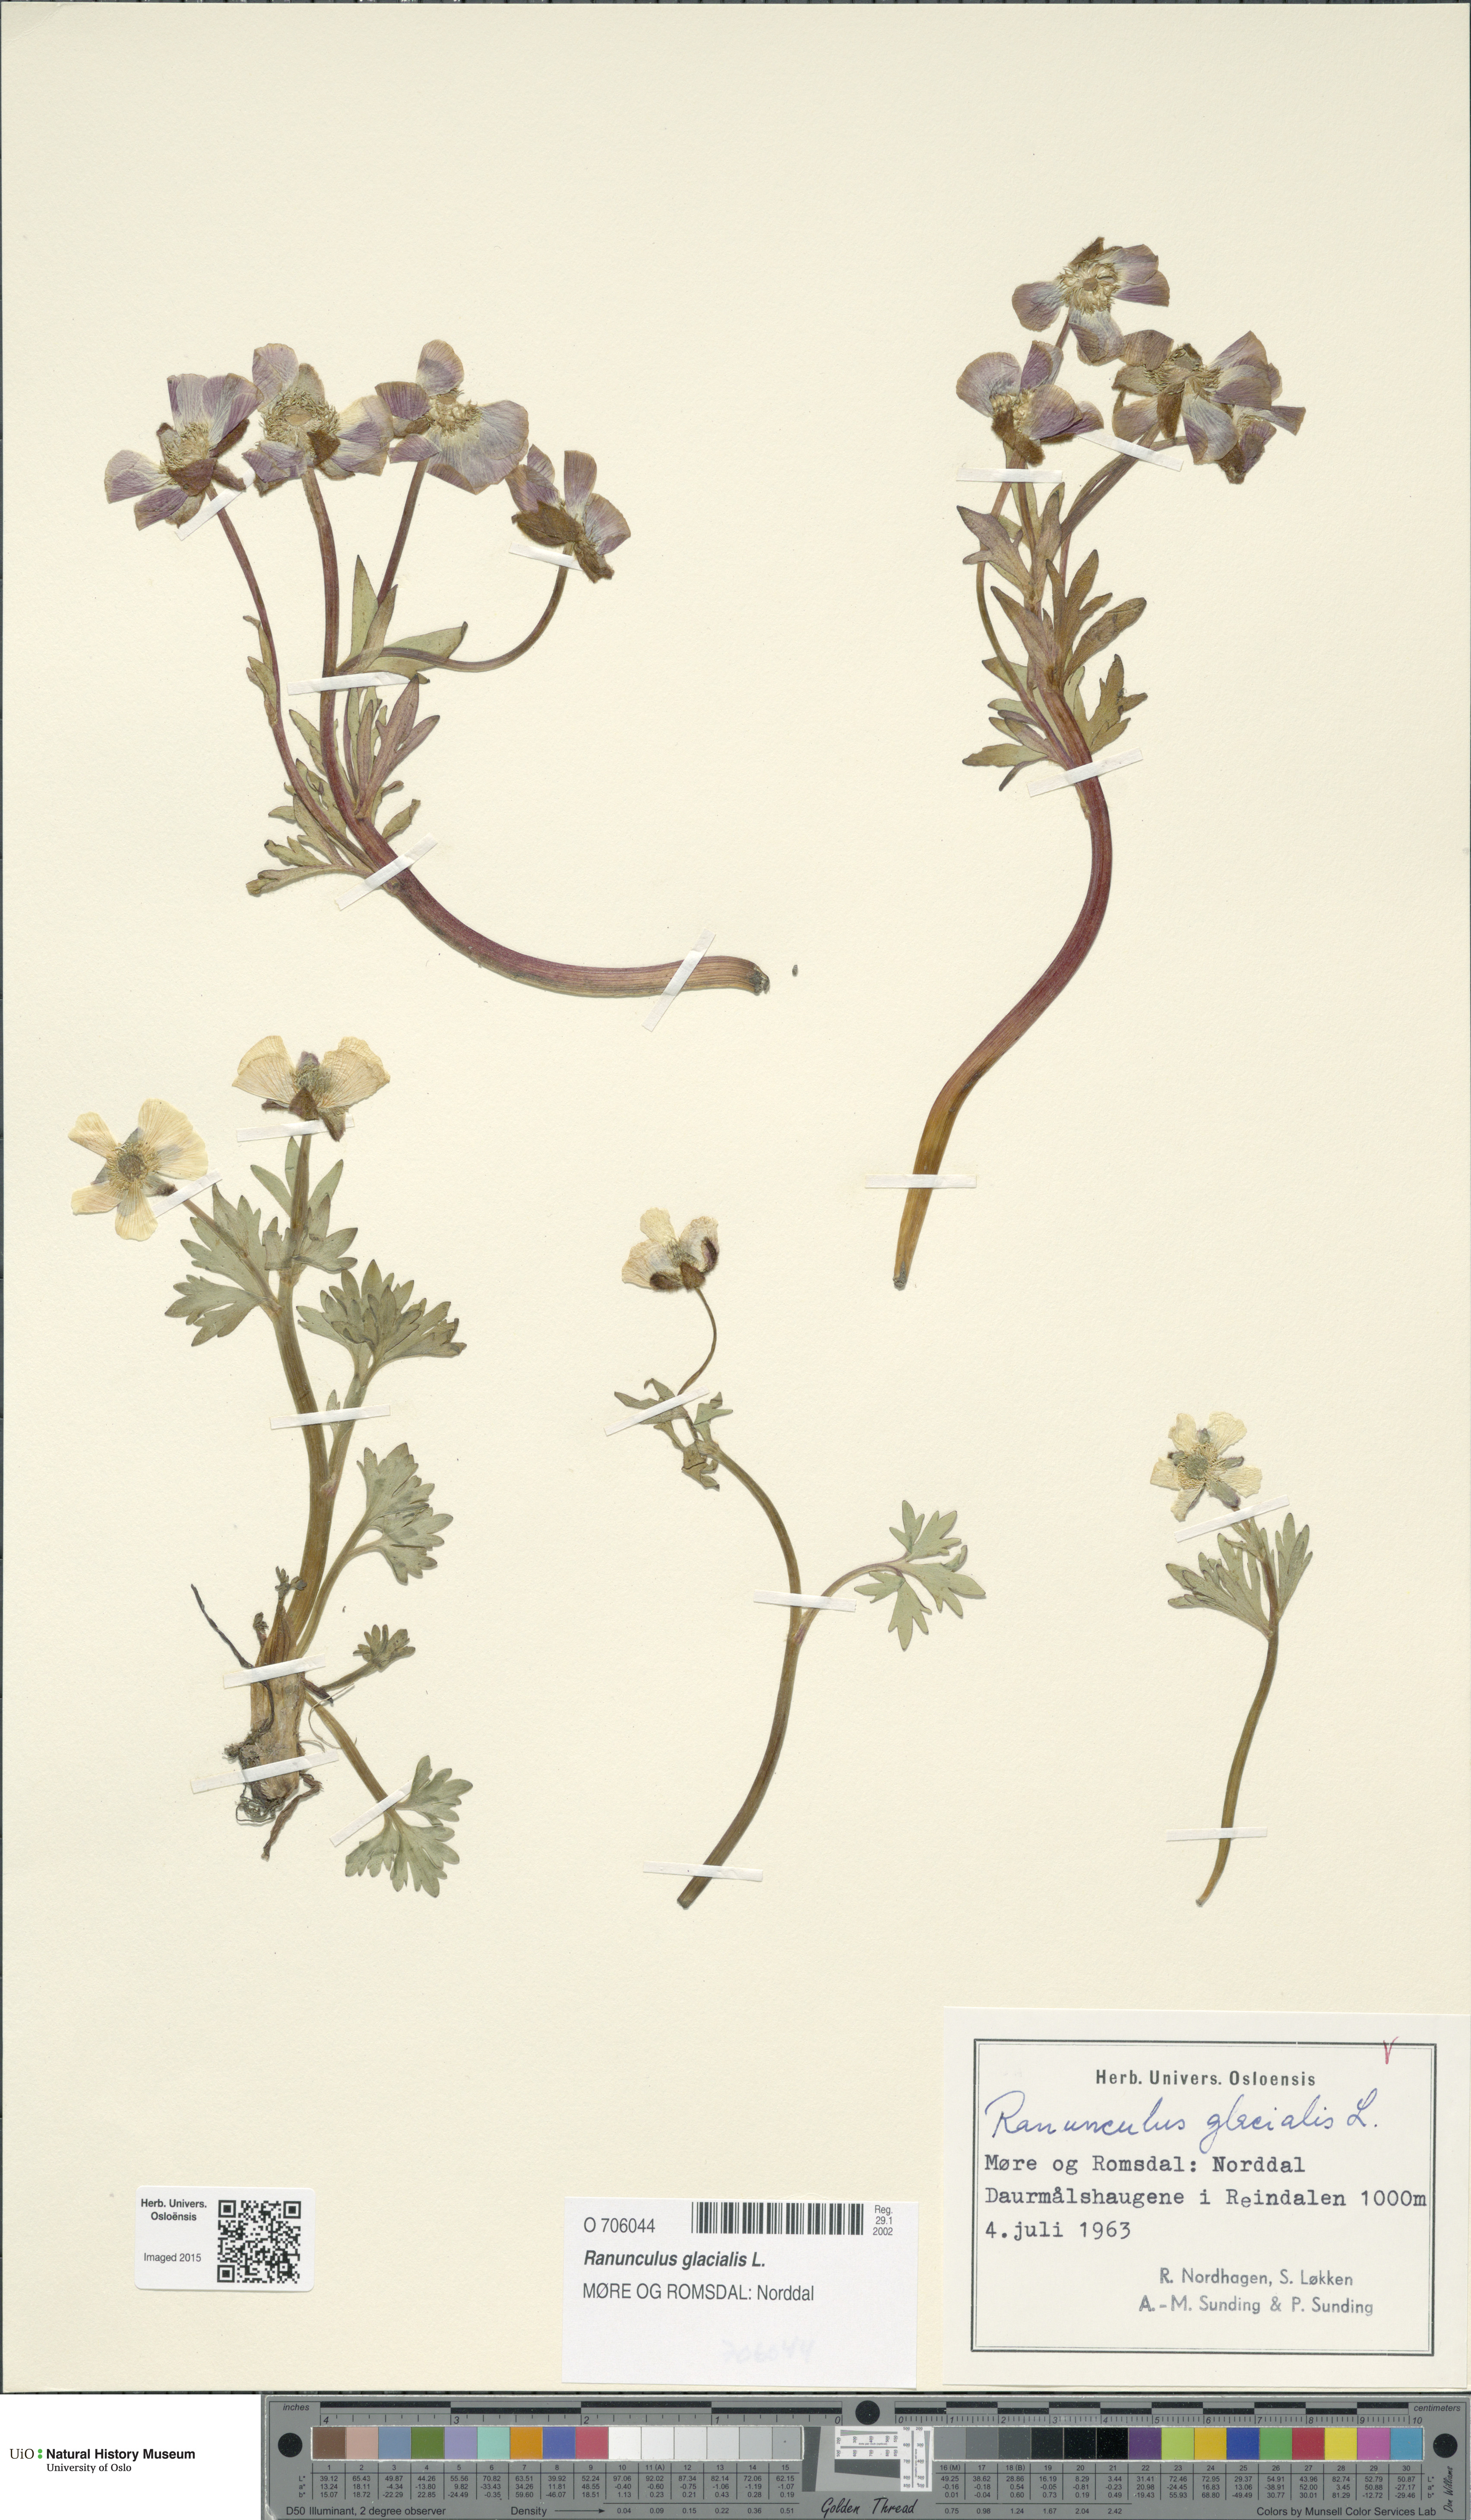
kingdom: Plantae
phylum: Tracheophyta
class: Magnoliopsida
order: Ranunculales
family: Ranunculaceae
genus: Ranunculus
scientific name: Ranunculus glacialis
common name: Glacier buttercup
